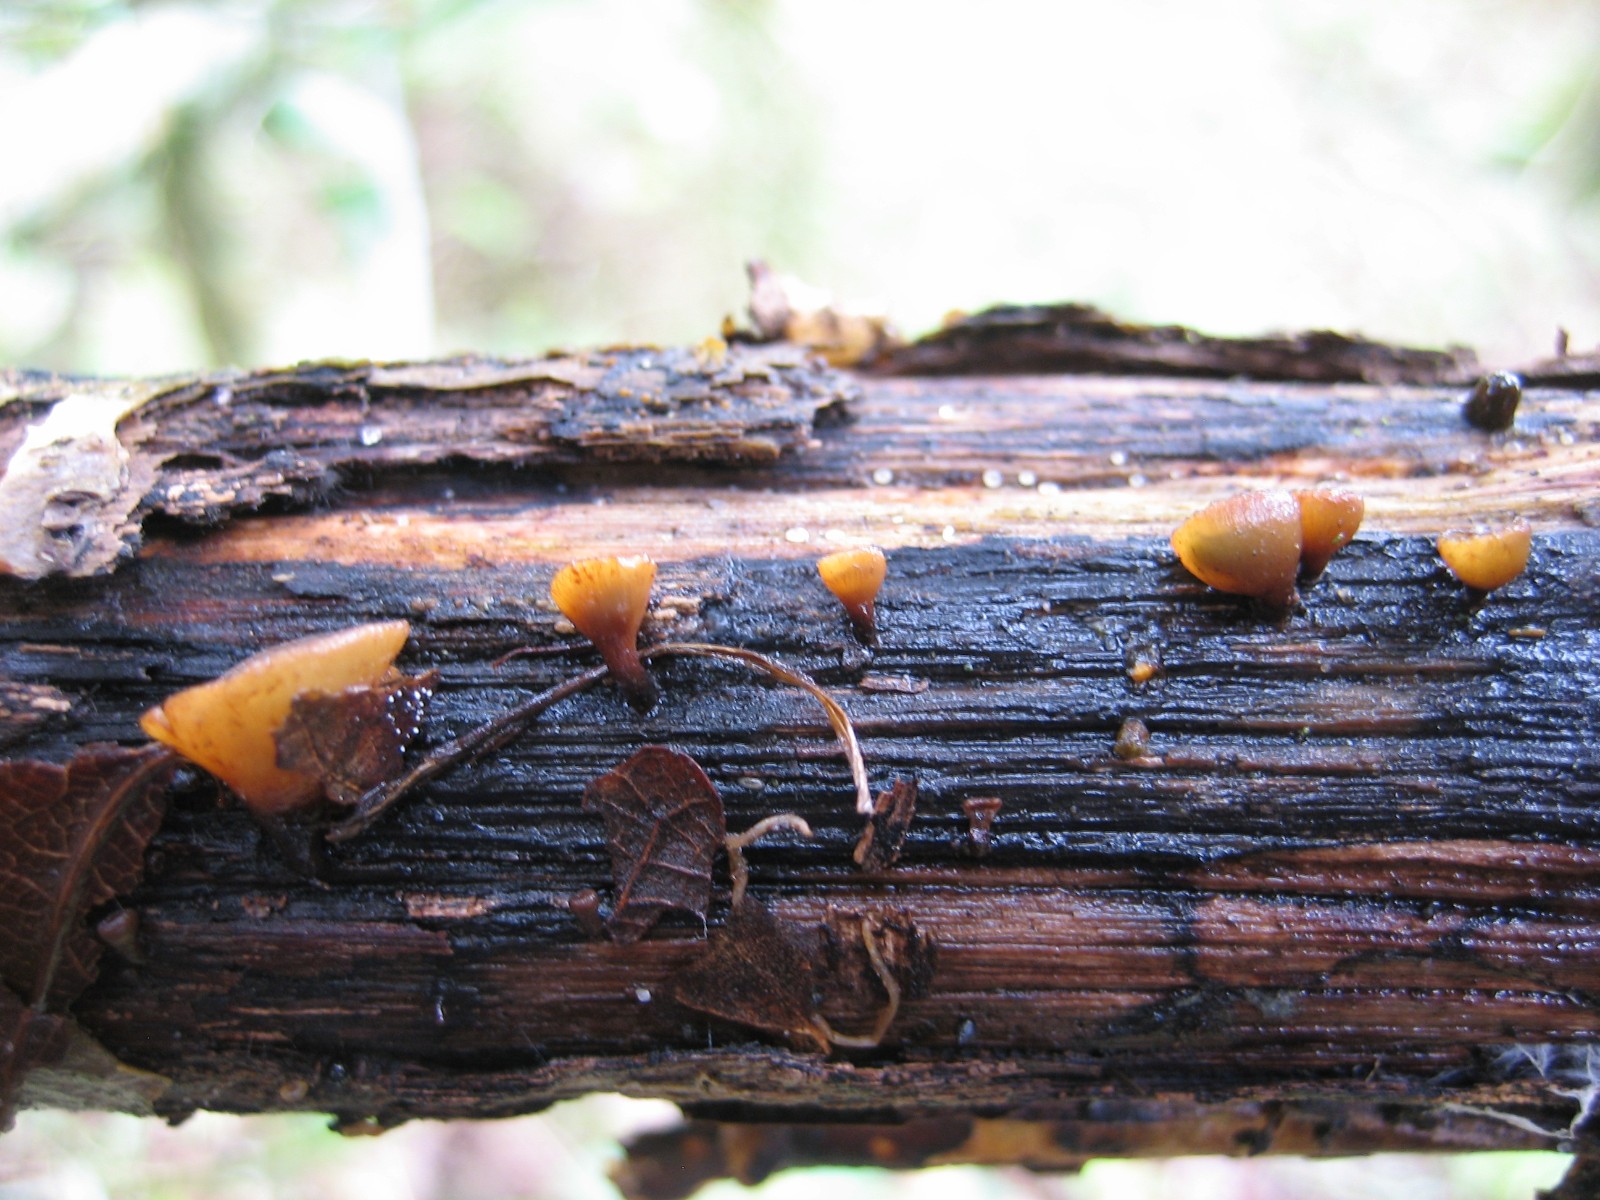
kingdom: Fungi
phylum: Ascomycota
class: Leotiomycetes
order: Helotiales
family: Rutstroemiaceae
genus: Rutstroemia
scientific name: Rutstroemia firma
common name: gren-brunskive
